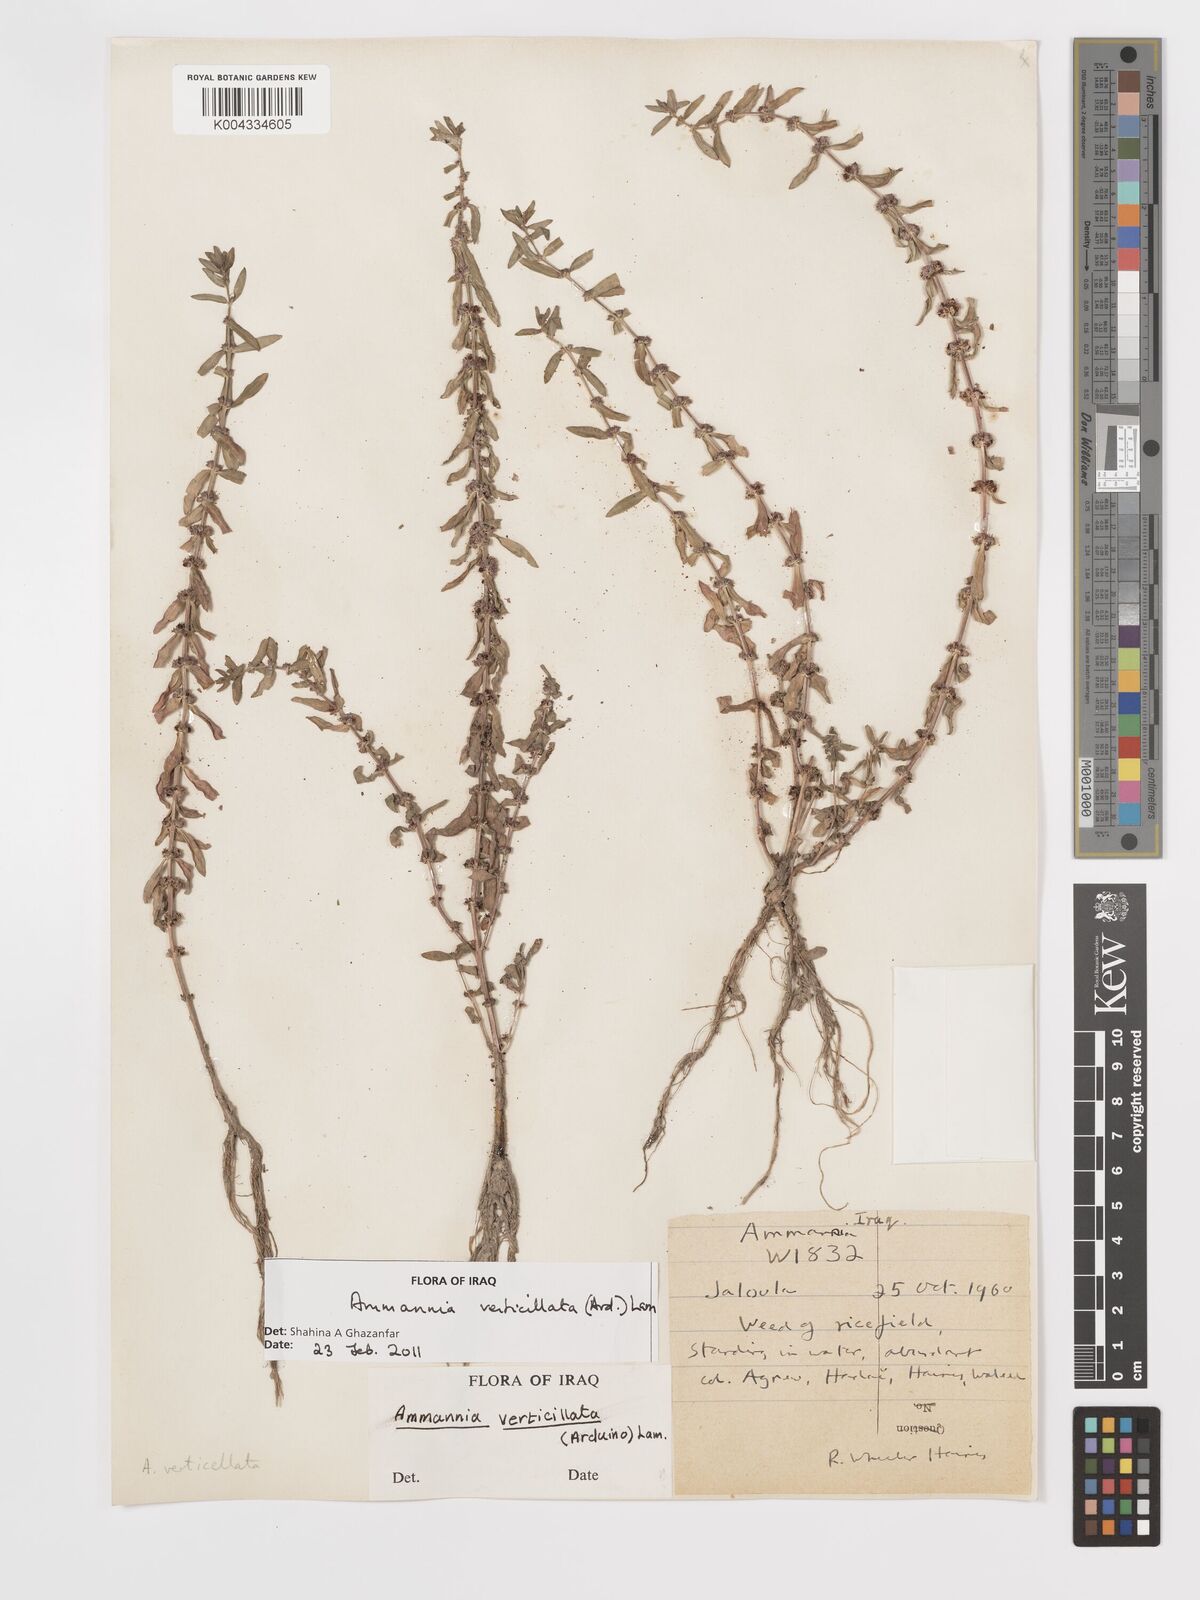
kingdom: Plantae
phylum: Tracheophyta
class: Magnoliopsida
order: Myrtales
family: Lythraceae
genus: Ammannia
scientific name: Ammannia baccifera
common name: Blistering ammania
